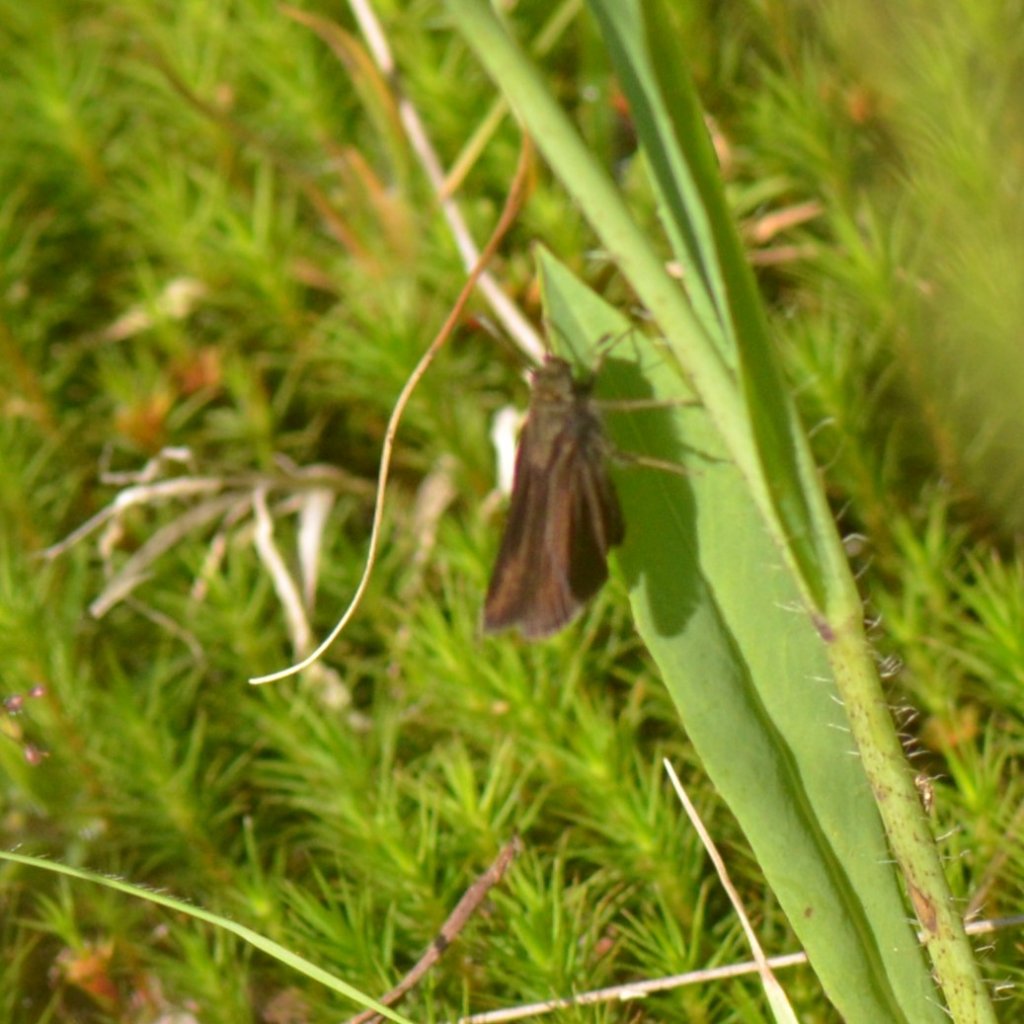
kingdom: Animalia
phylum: Arthropoda
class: Insecta
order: Lepidoptera
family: Hesperiidae
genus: Euphyes
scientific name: Euphyes vestris
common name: Dun Skipper
